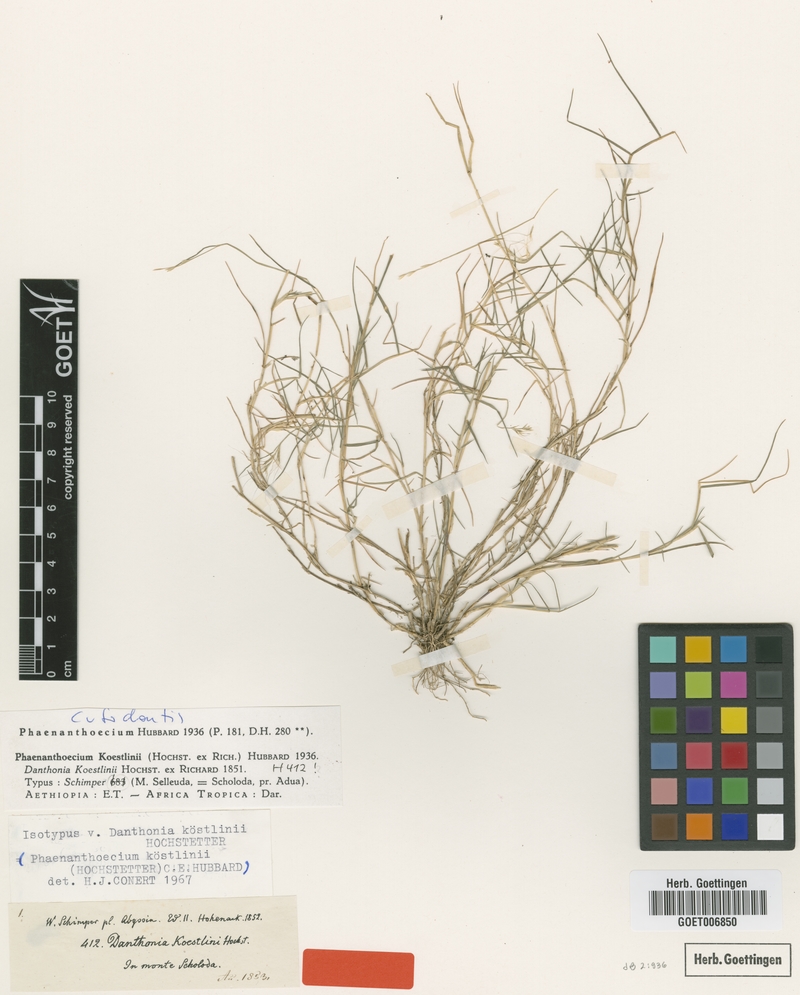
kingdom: Plantae
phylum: Tracheophyta
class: Liliopsida
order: Poales
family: Poaceae
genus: Phaenanthoecium
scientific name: Phaenanthoecium koestlinii
